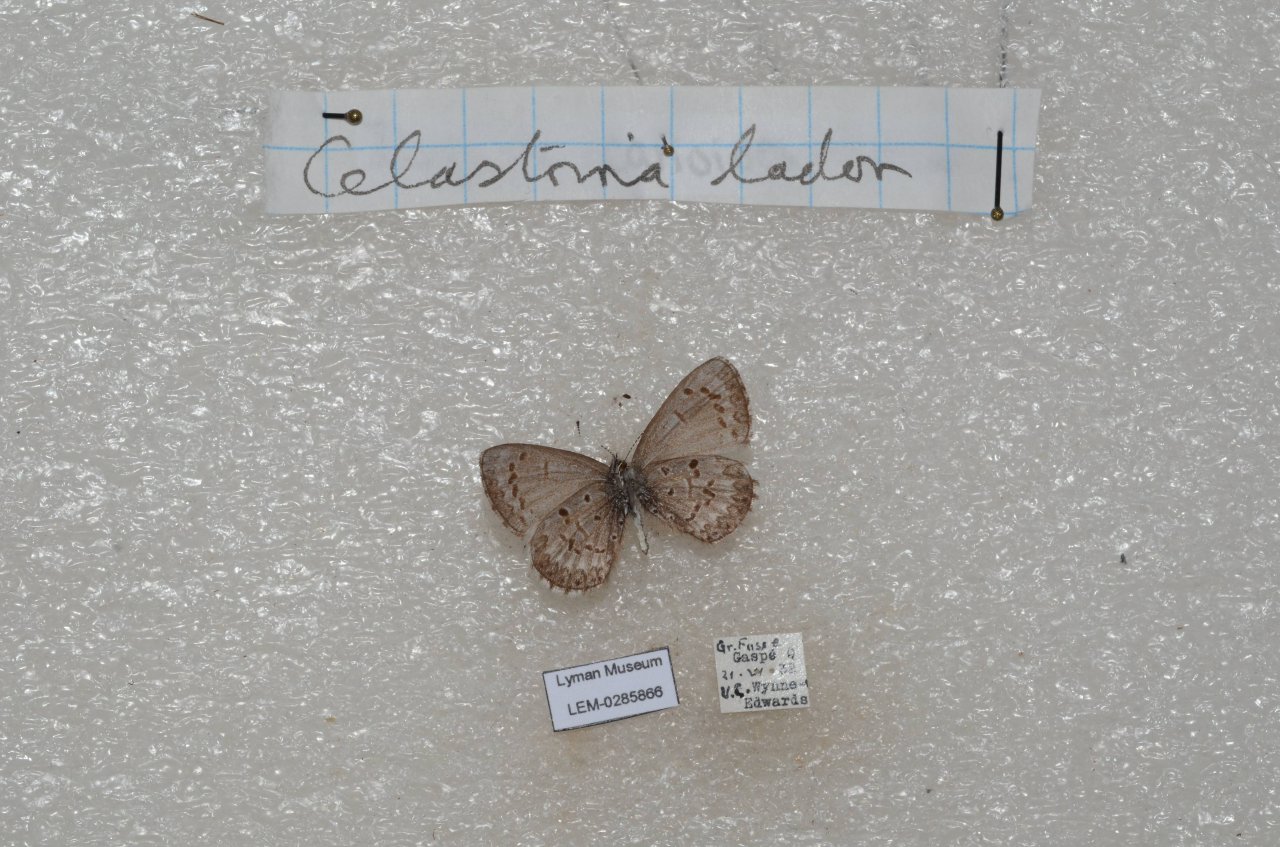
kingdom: Animalia
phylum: Arthropoda
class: Insecta
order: Lepidoptera
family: Lycaenidae
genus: Celastrina
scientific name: Celastrina lucia
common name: Northern Spring Azure
